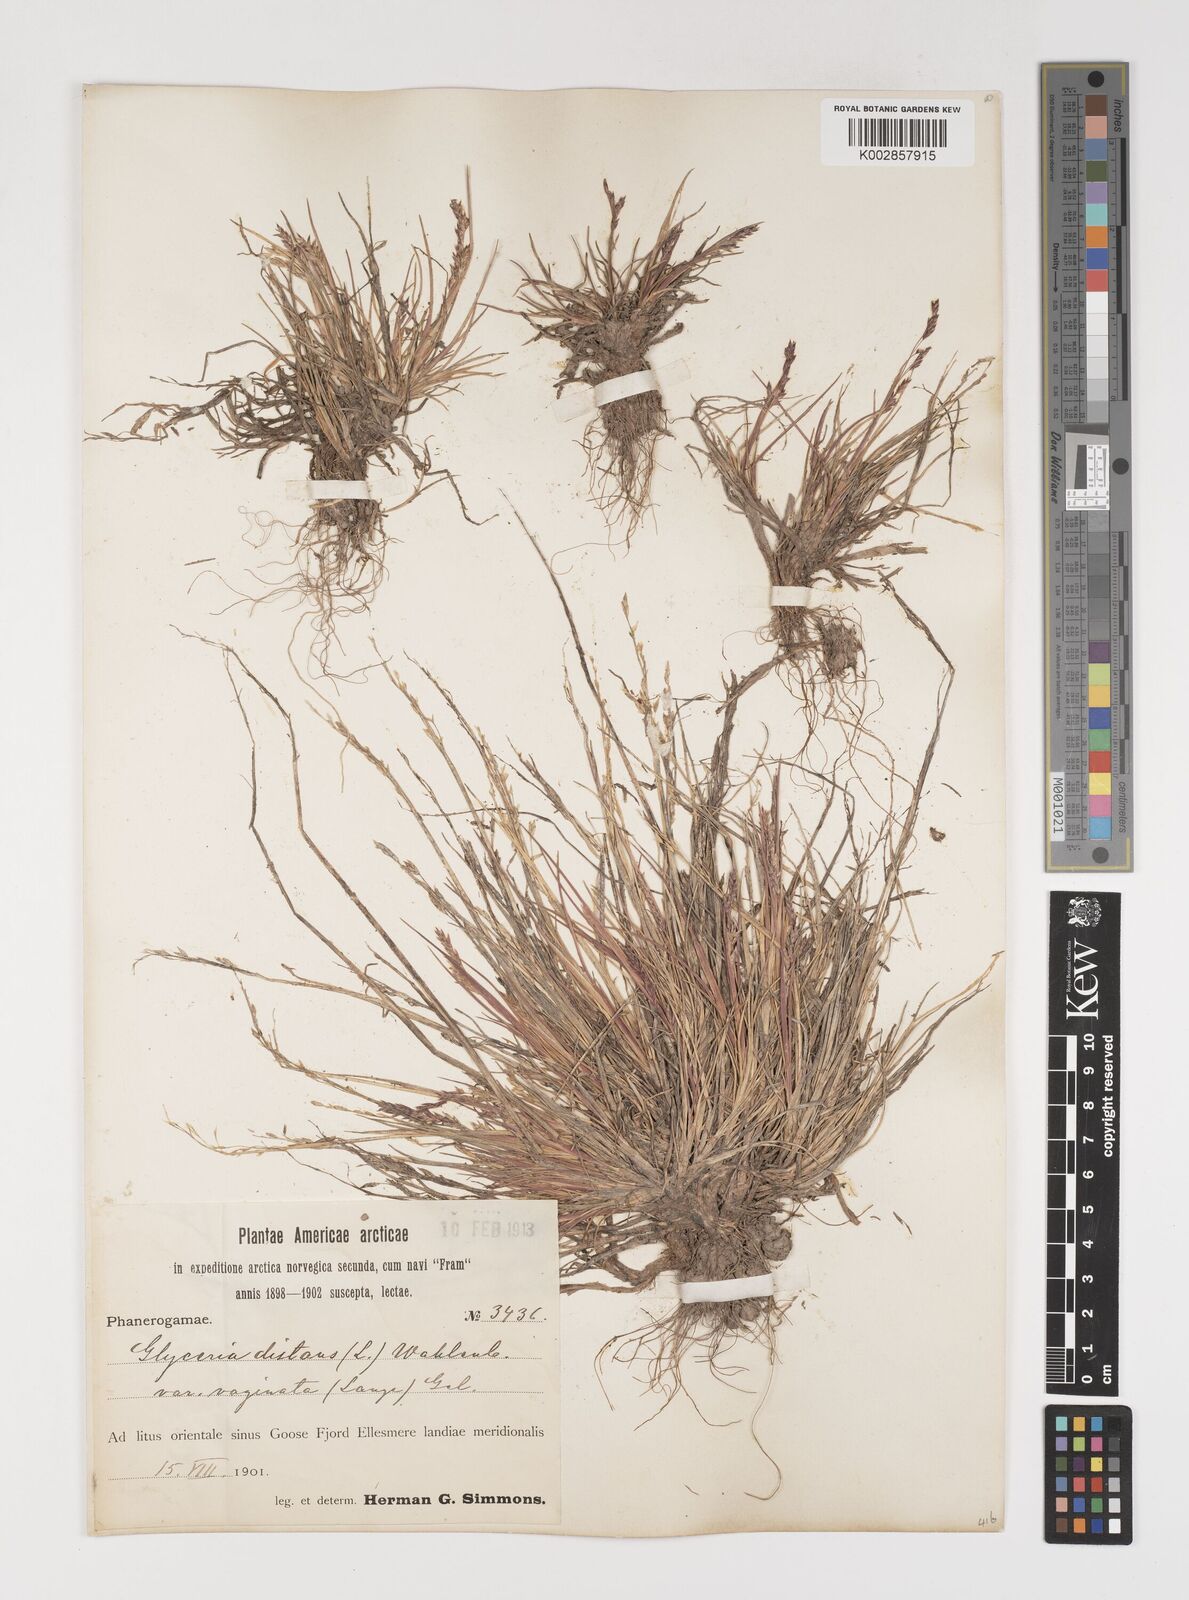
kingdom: Plantae
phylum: Tracheophyta
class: Liliopsida
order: Poales
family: Poaceae
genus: Puccinellia
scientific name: Puccinellia
